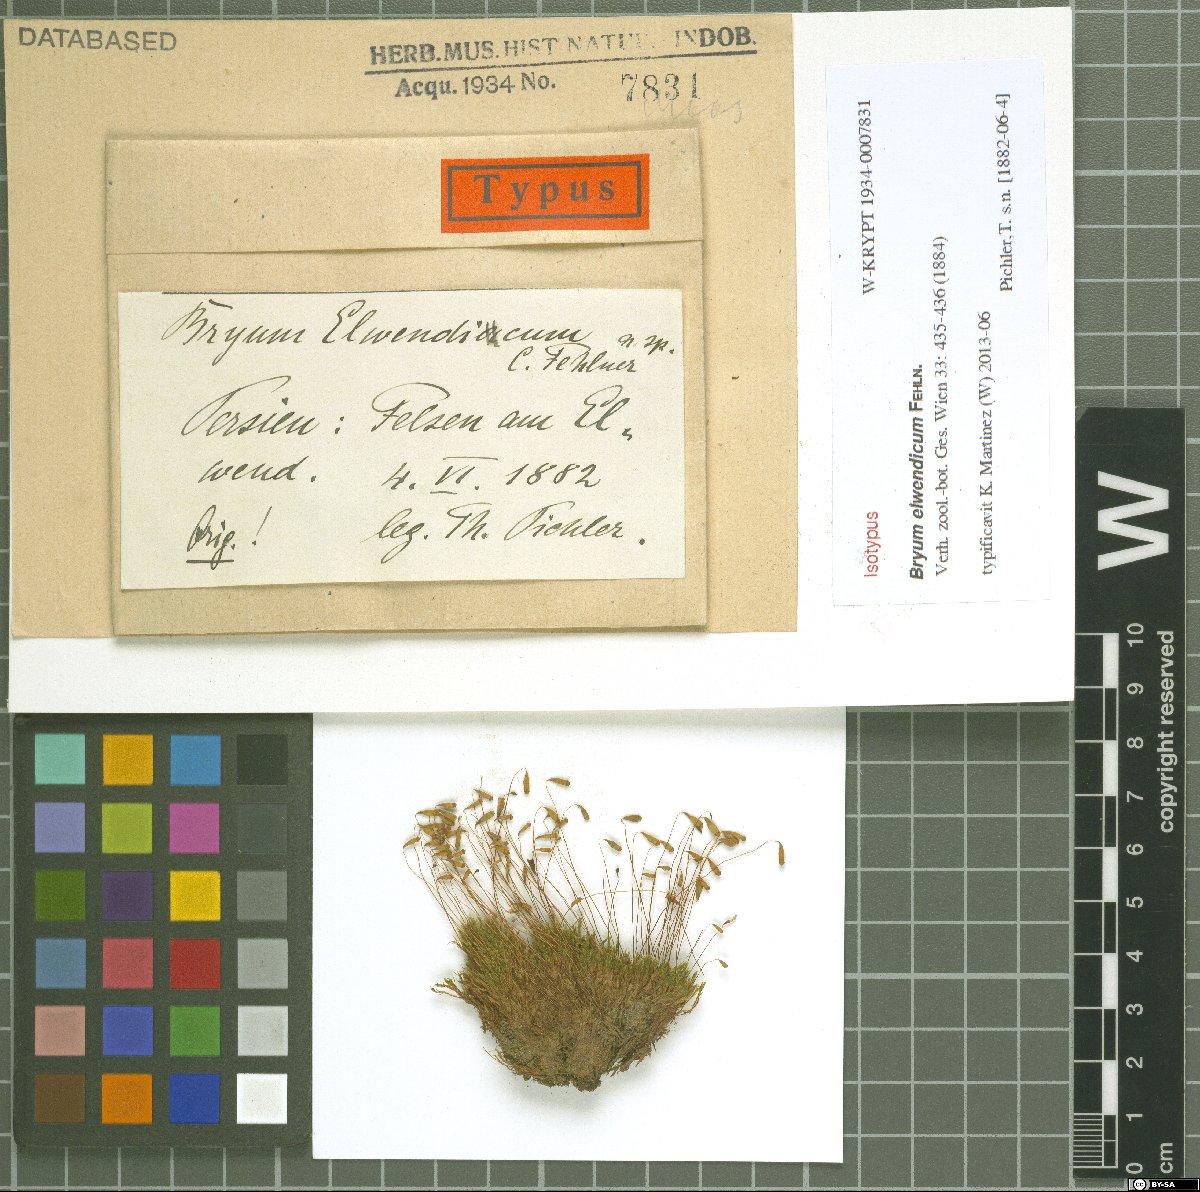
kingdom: Plantae
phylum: Bryophyta
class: Bryopsida
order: Bryales
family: Bryaceae
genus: Bryum
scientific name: Bryum elwendicum
